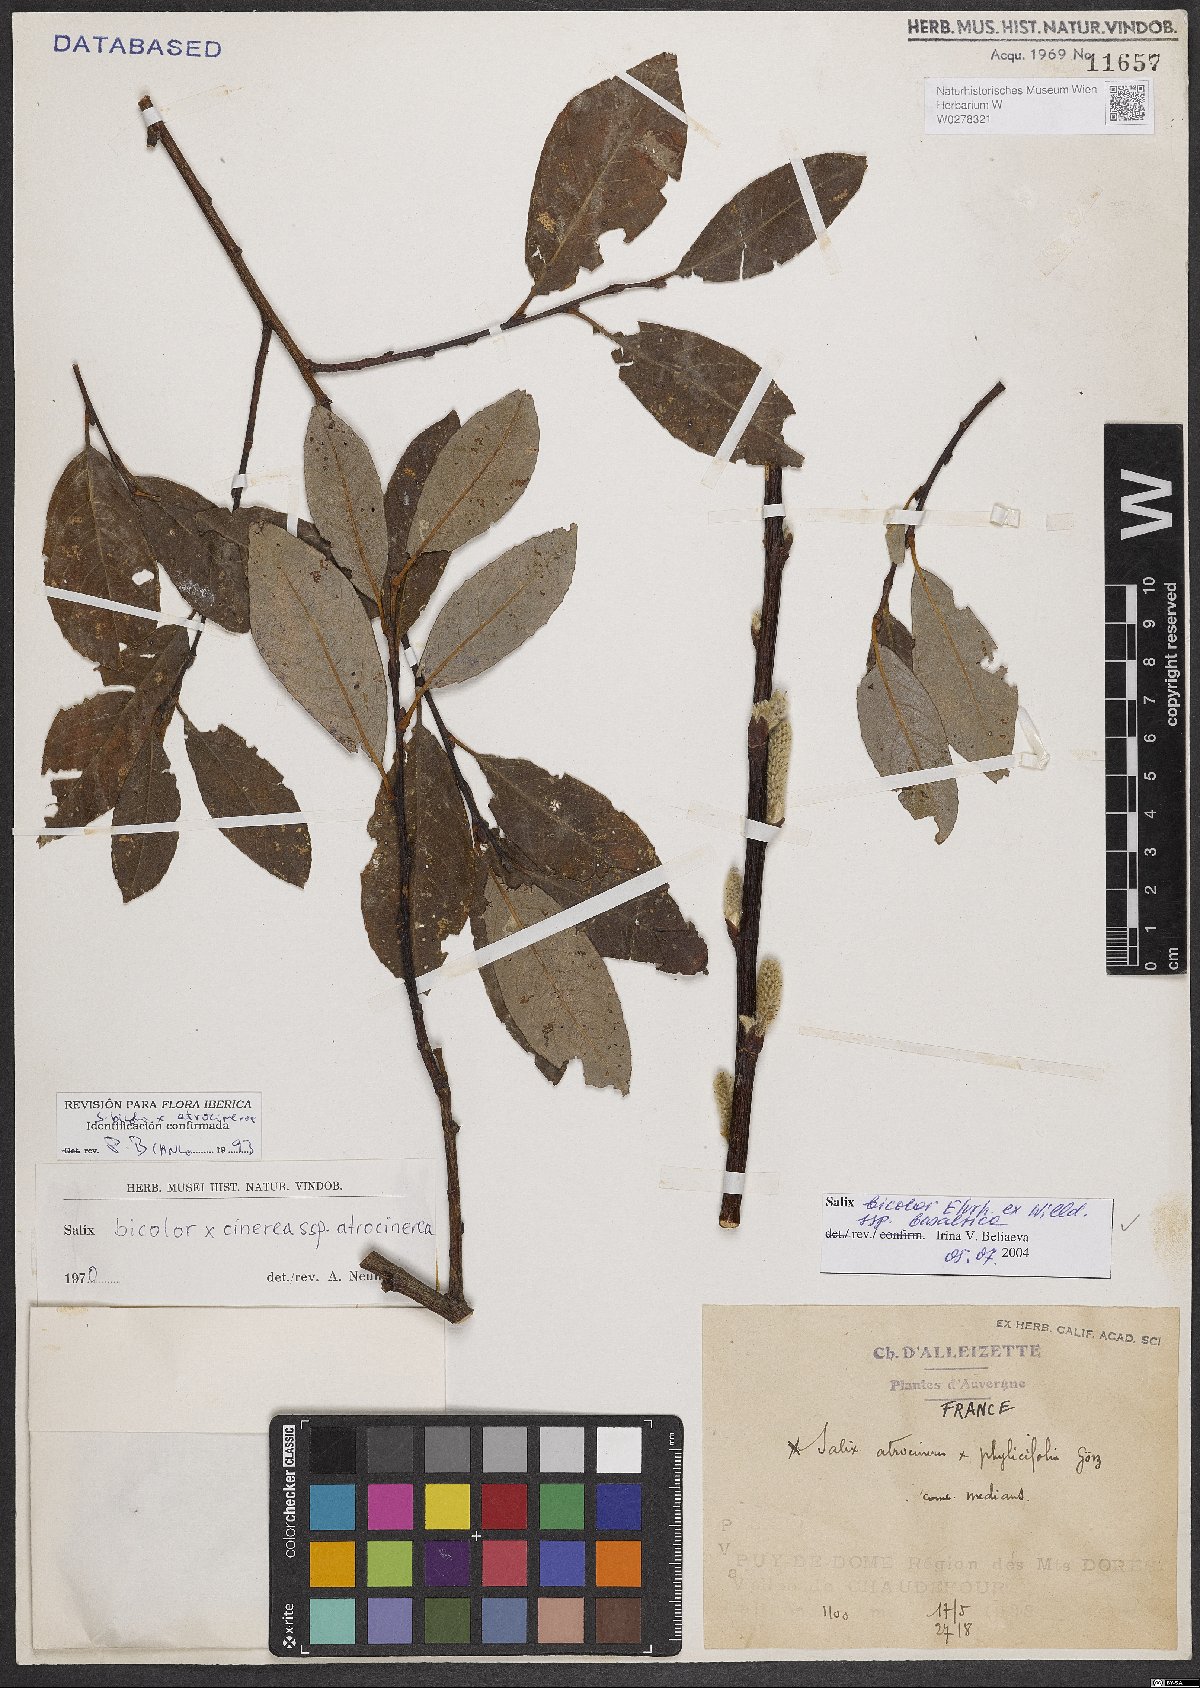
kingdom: Plantae
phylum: Tracheophyta
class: Magnoliopsida
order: Malpighiales
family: Salicaceae
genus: Salix
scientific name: Salix basaltica
